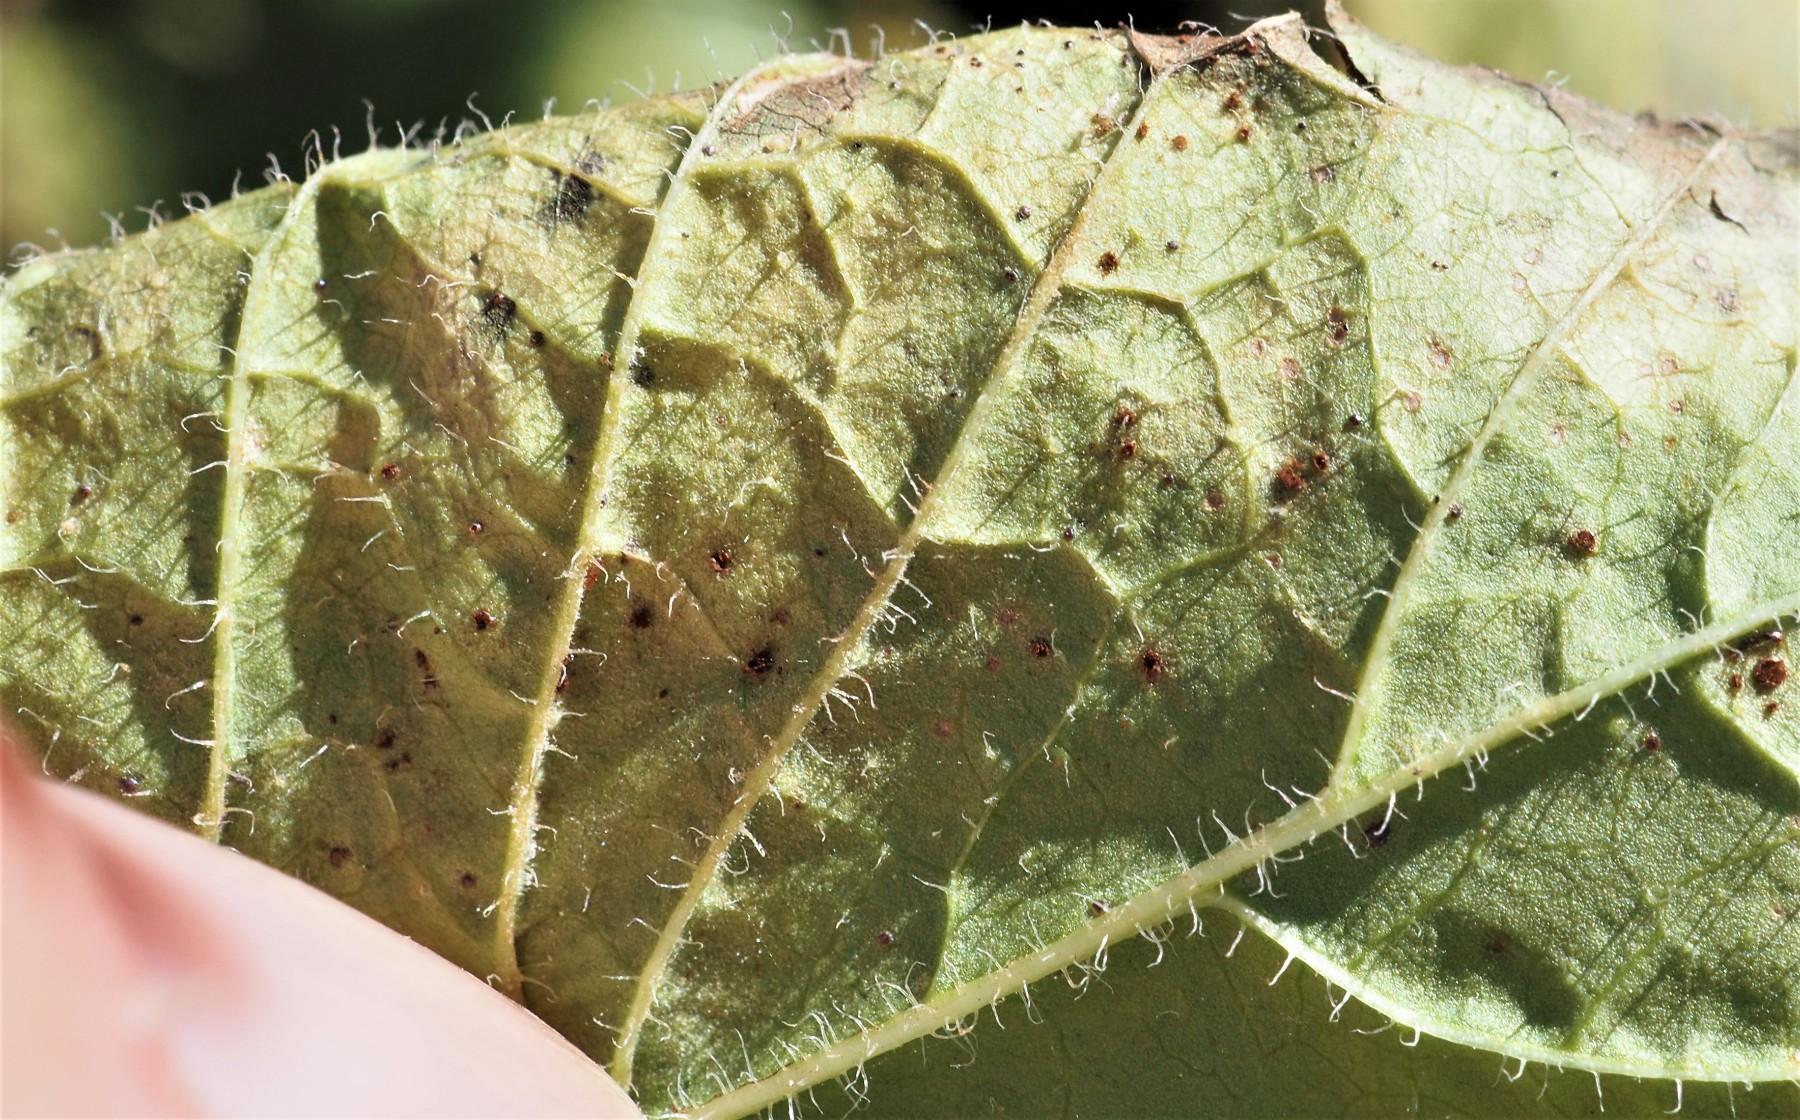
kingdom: Fungi
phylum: Basidiomycota
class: Pucciniomycetes
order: Pucciniales
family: Pucciniaceae
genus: Puccinia
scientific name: Puccinia lapsanae
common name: Nipplewort rust
